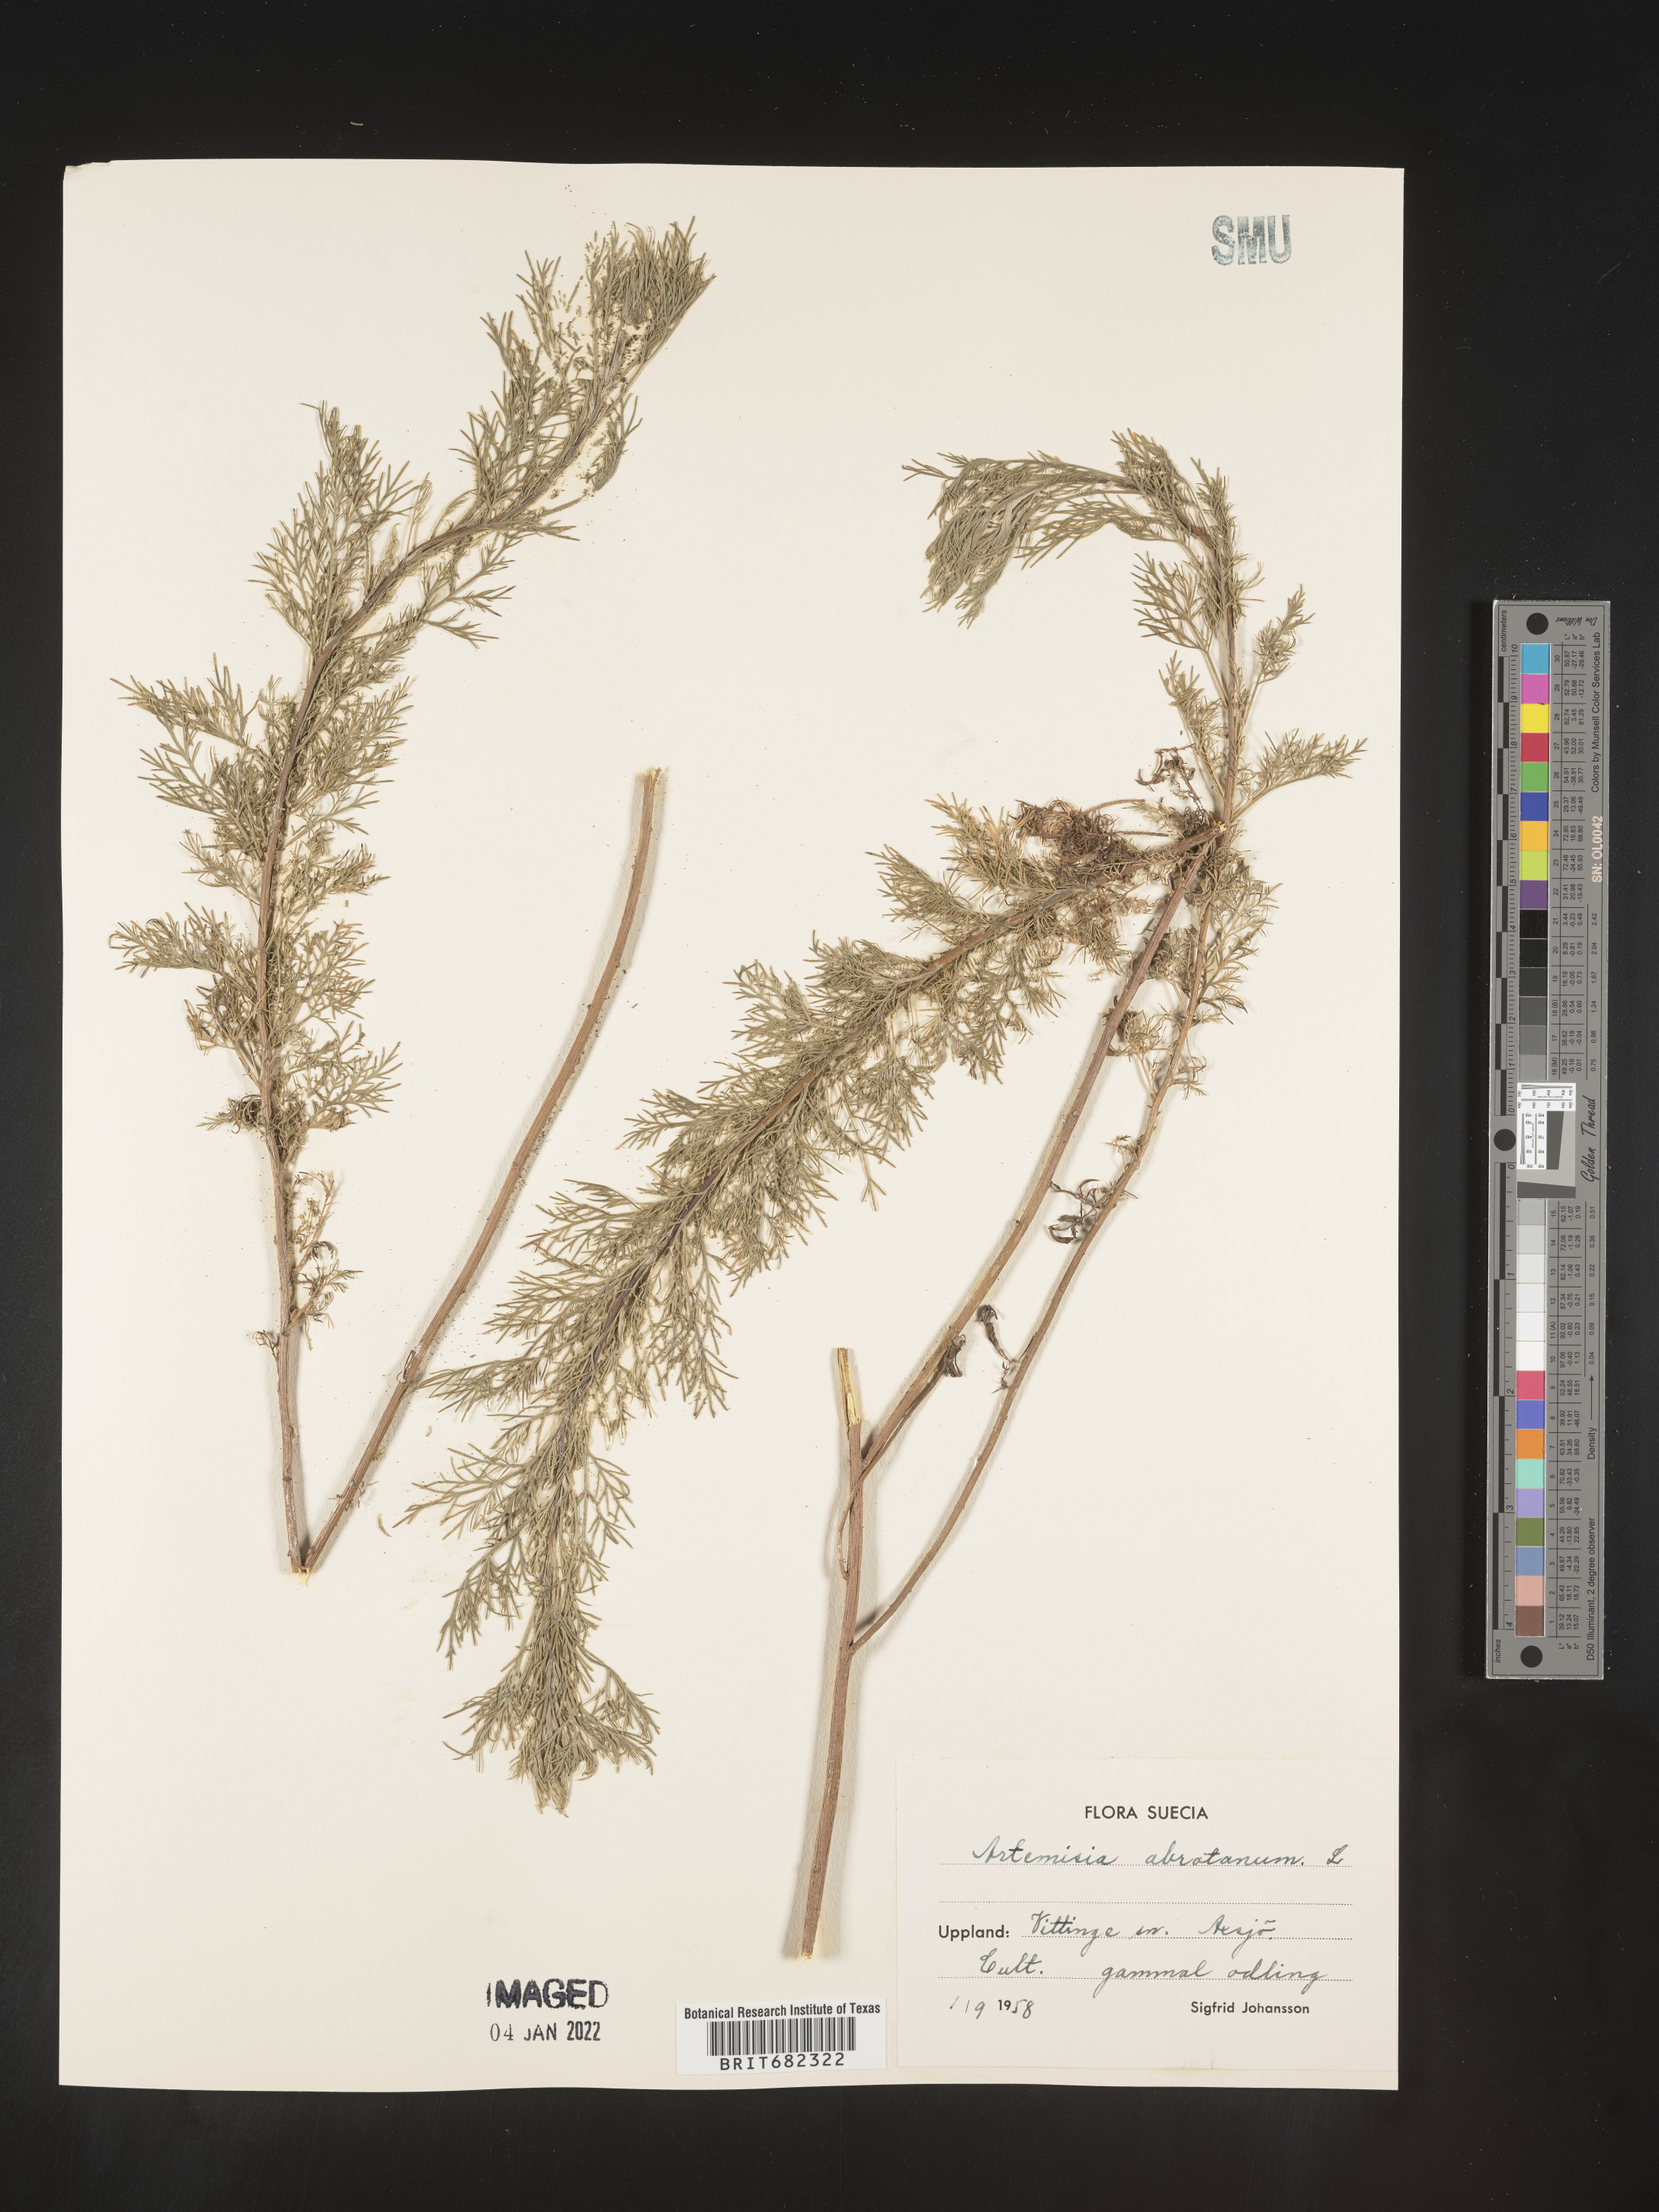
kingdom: Plantae
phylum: Tracheophyta
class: Magnoliopsida
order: Asterales
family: Asteraceae
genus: Artemisia
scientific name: Artemisia
